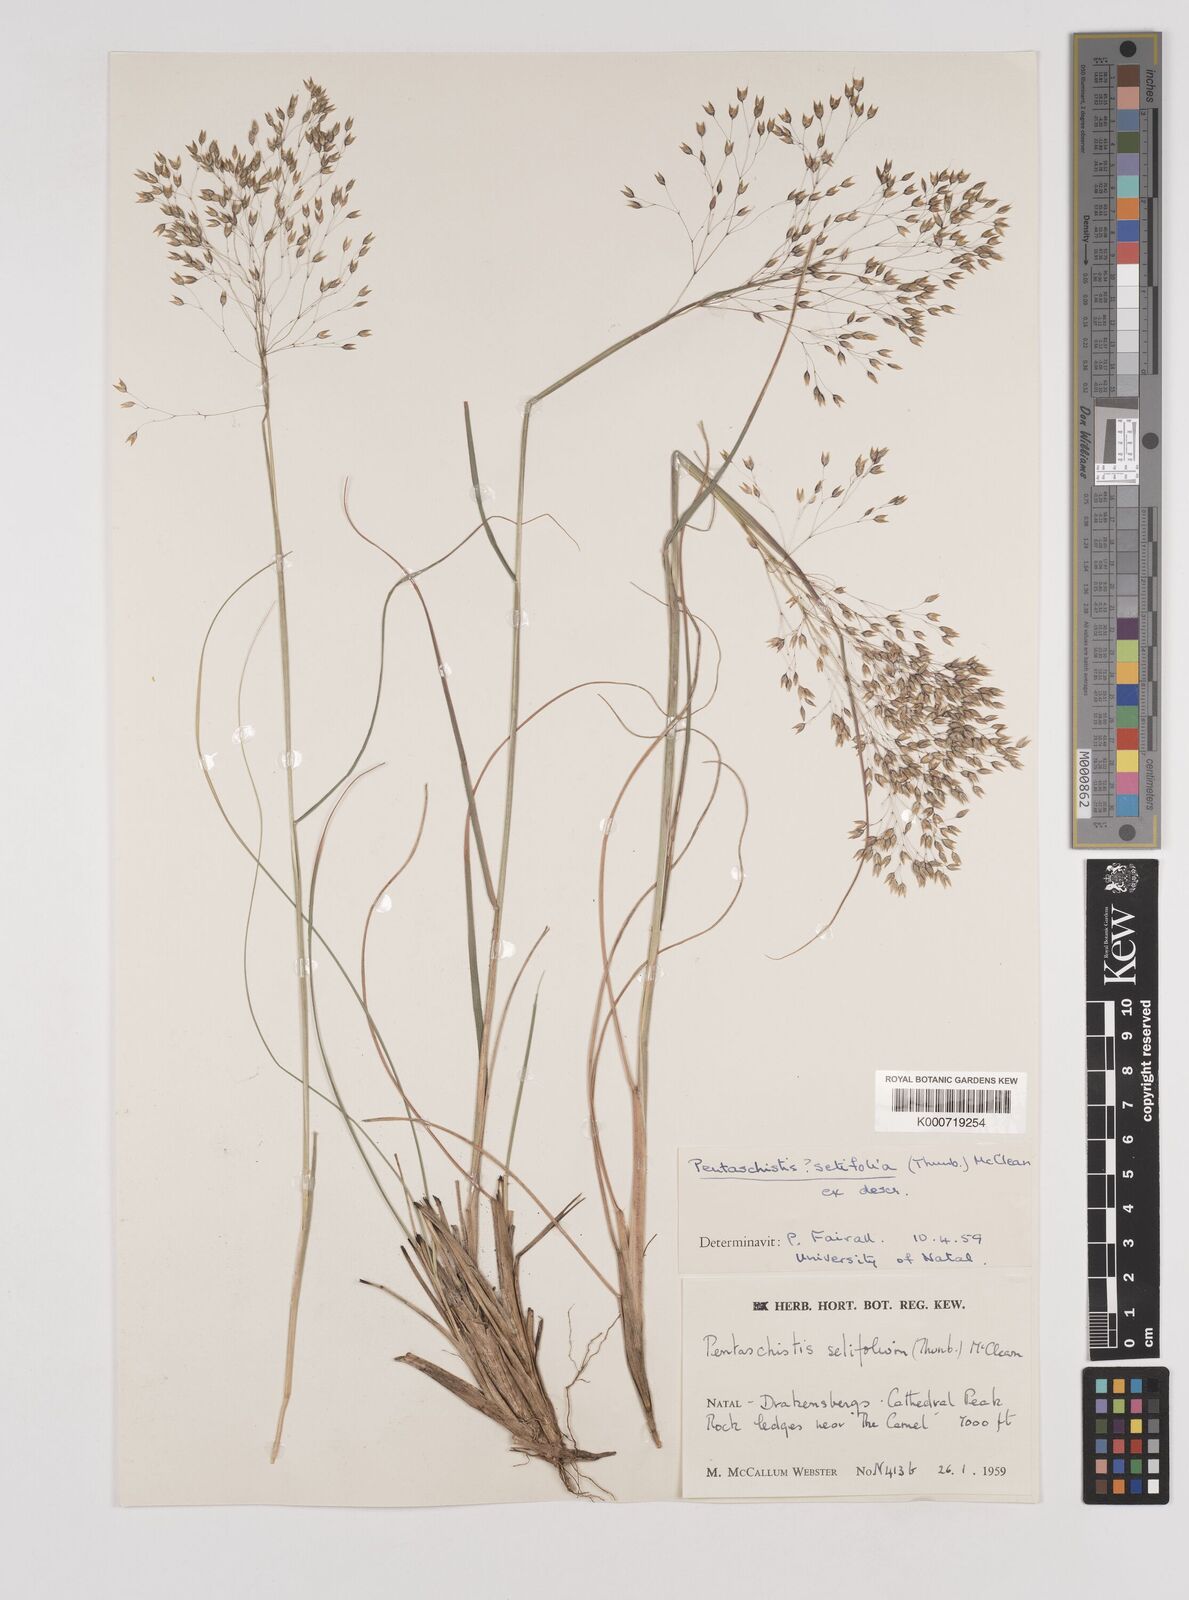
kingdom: Plantae
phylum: Tracheophyta
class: Liliopsida
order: Poales
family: Poaceae
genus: Pentameris
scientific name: Pentameris setifolia
